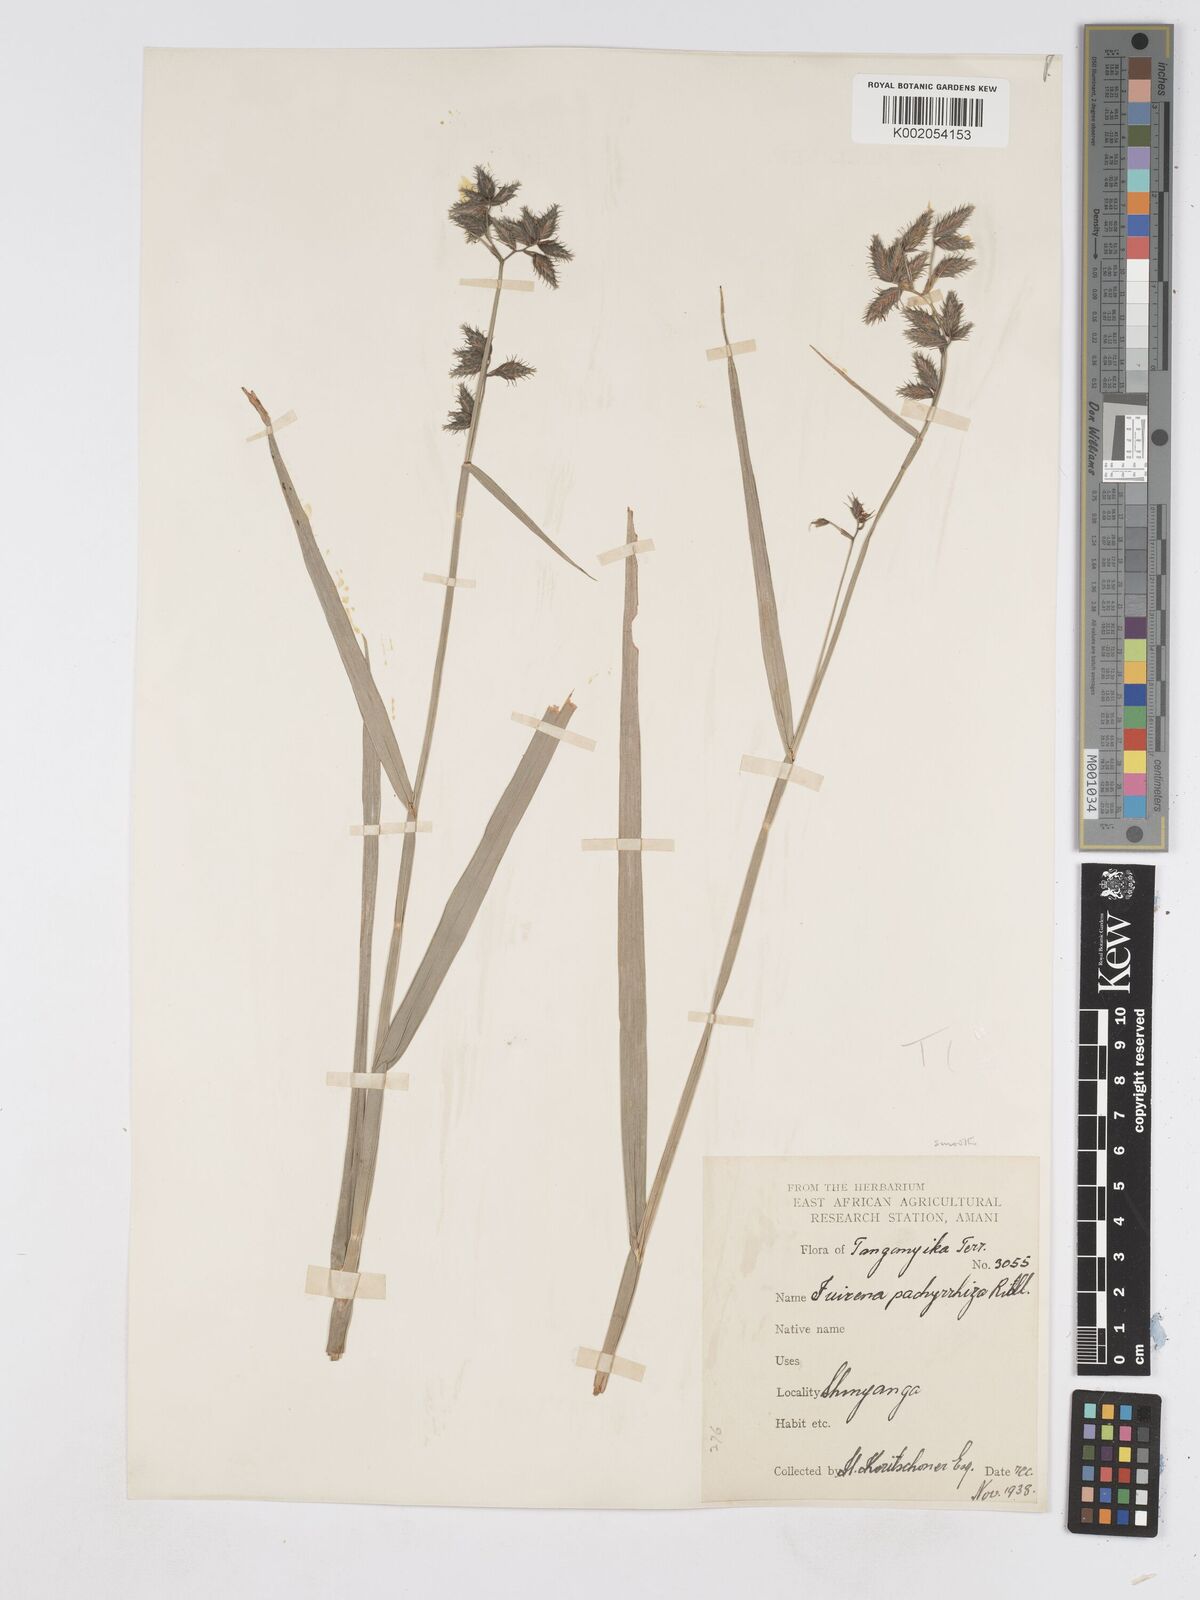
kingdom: Plantae
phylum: Tracheophyta
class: Liliopsida
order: Poales
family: Cyperaceae
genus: Fuirena
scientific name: Fuirena pachyrrhiza
